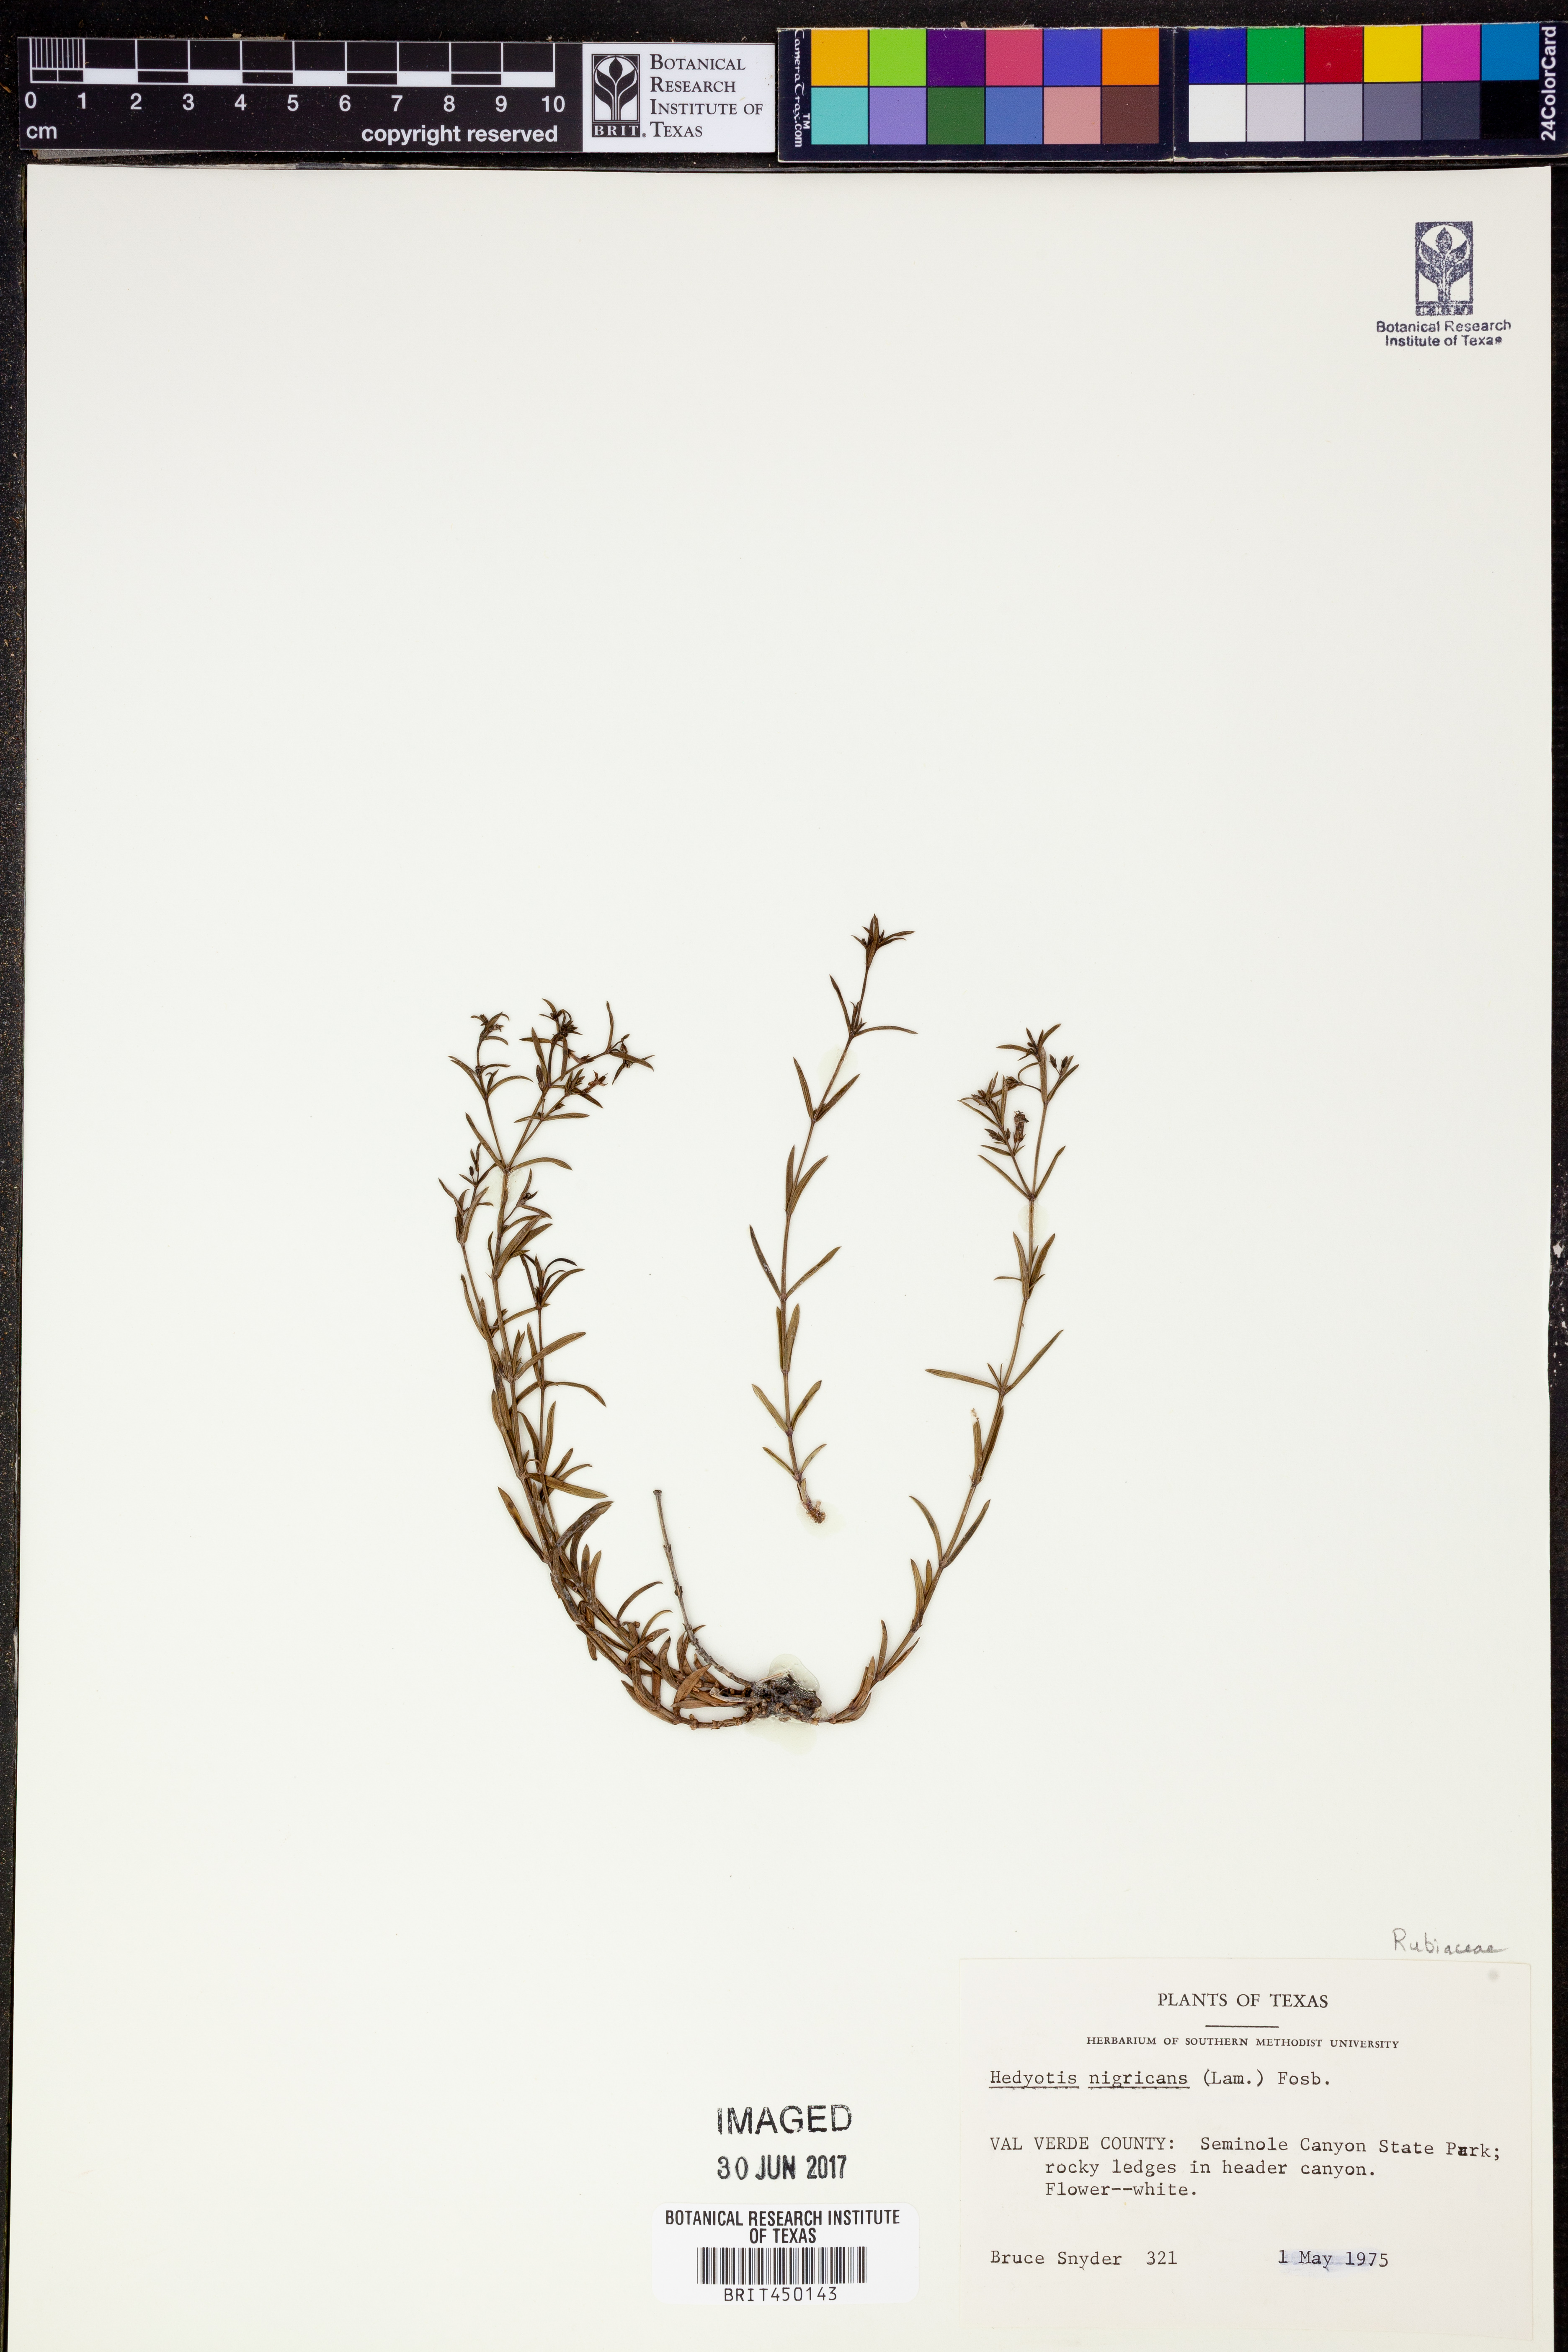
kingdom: Plantae
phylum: Tracheophyta
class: Magnoliopsida
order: Gentianales
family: Rubiaceae
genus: Stenaria
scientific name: Stenaria nigricans
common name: Diamondflowers
